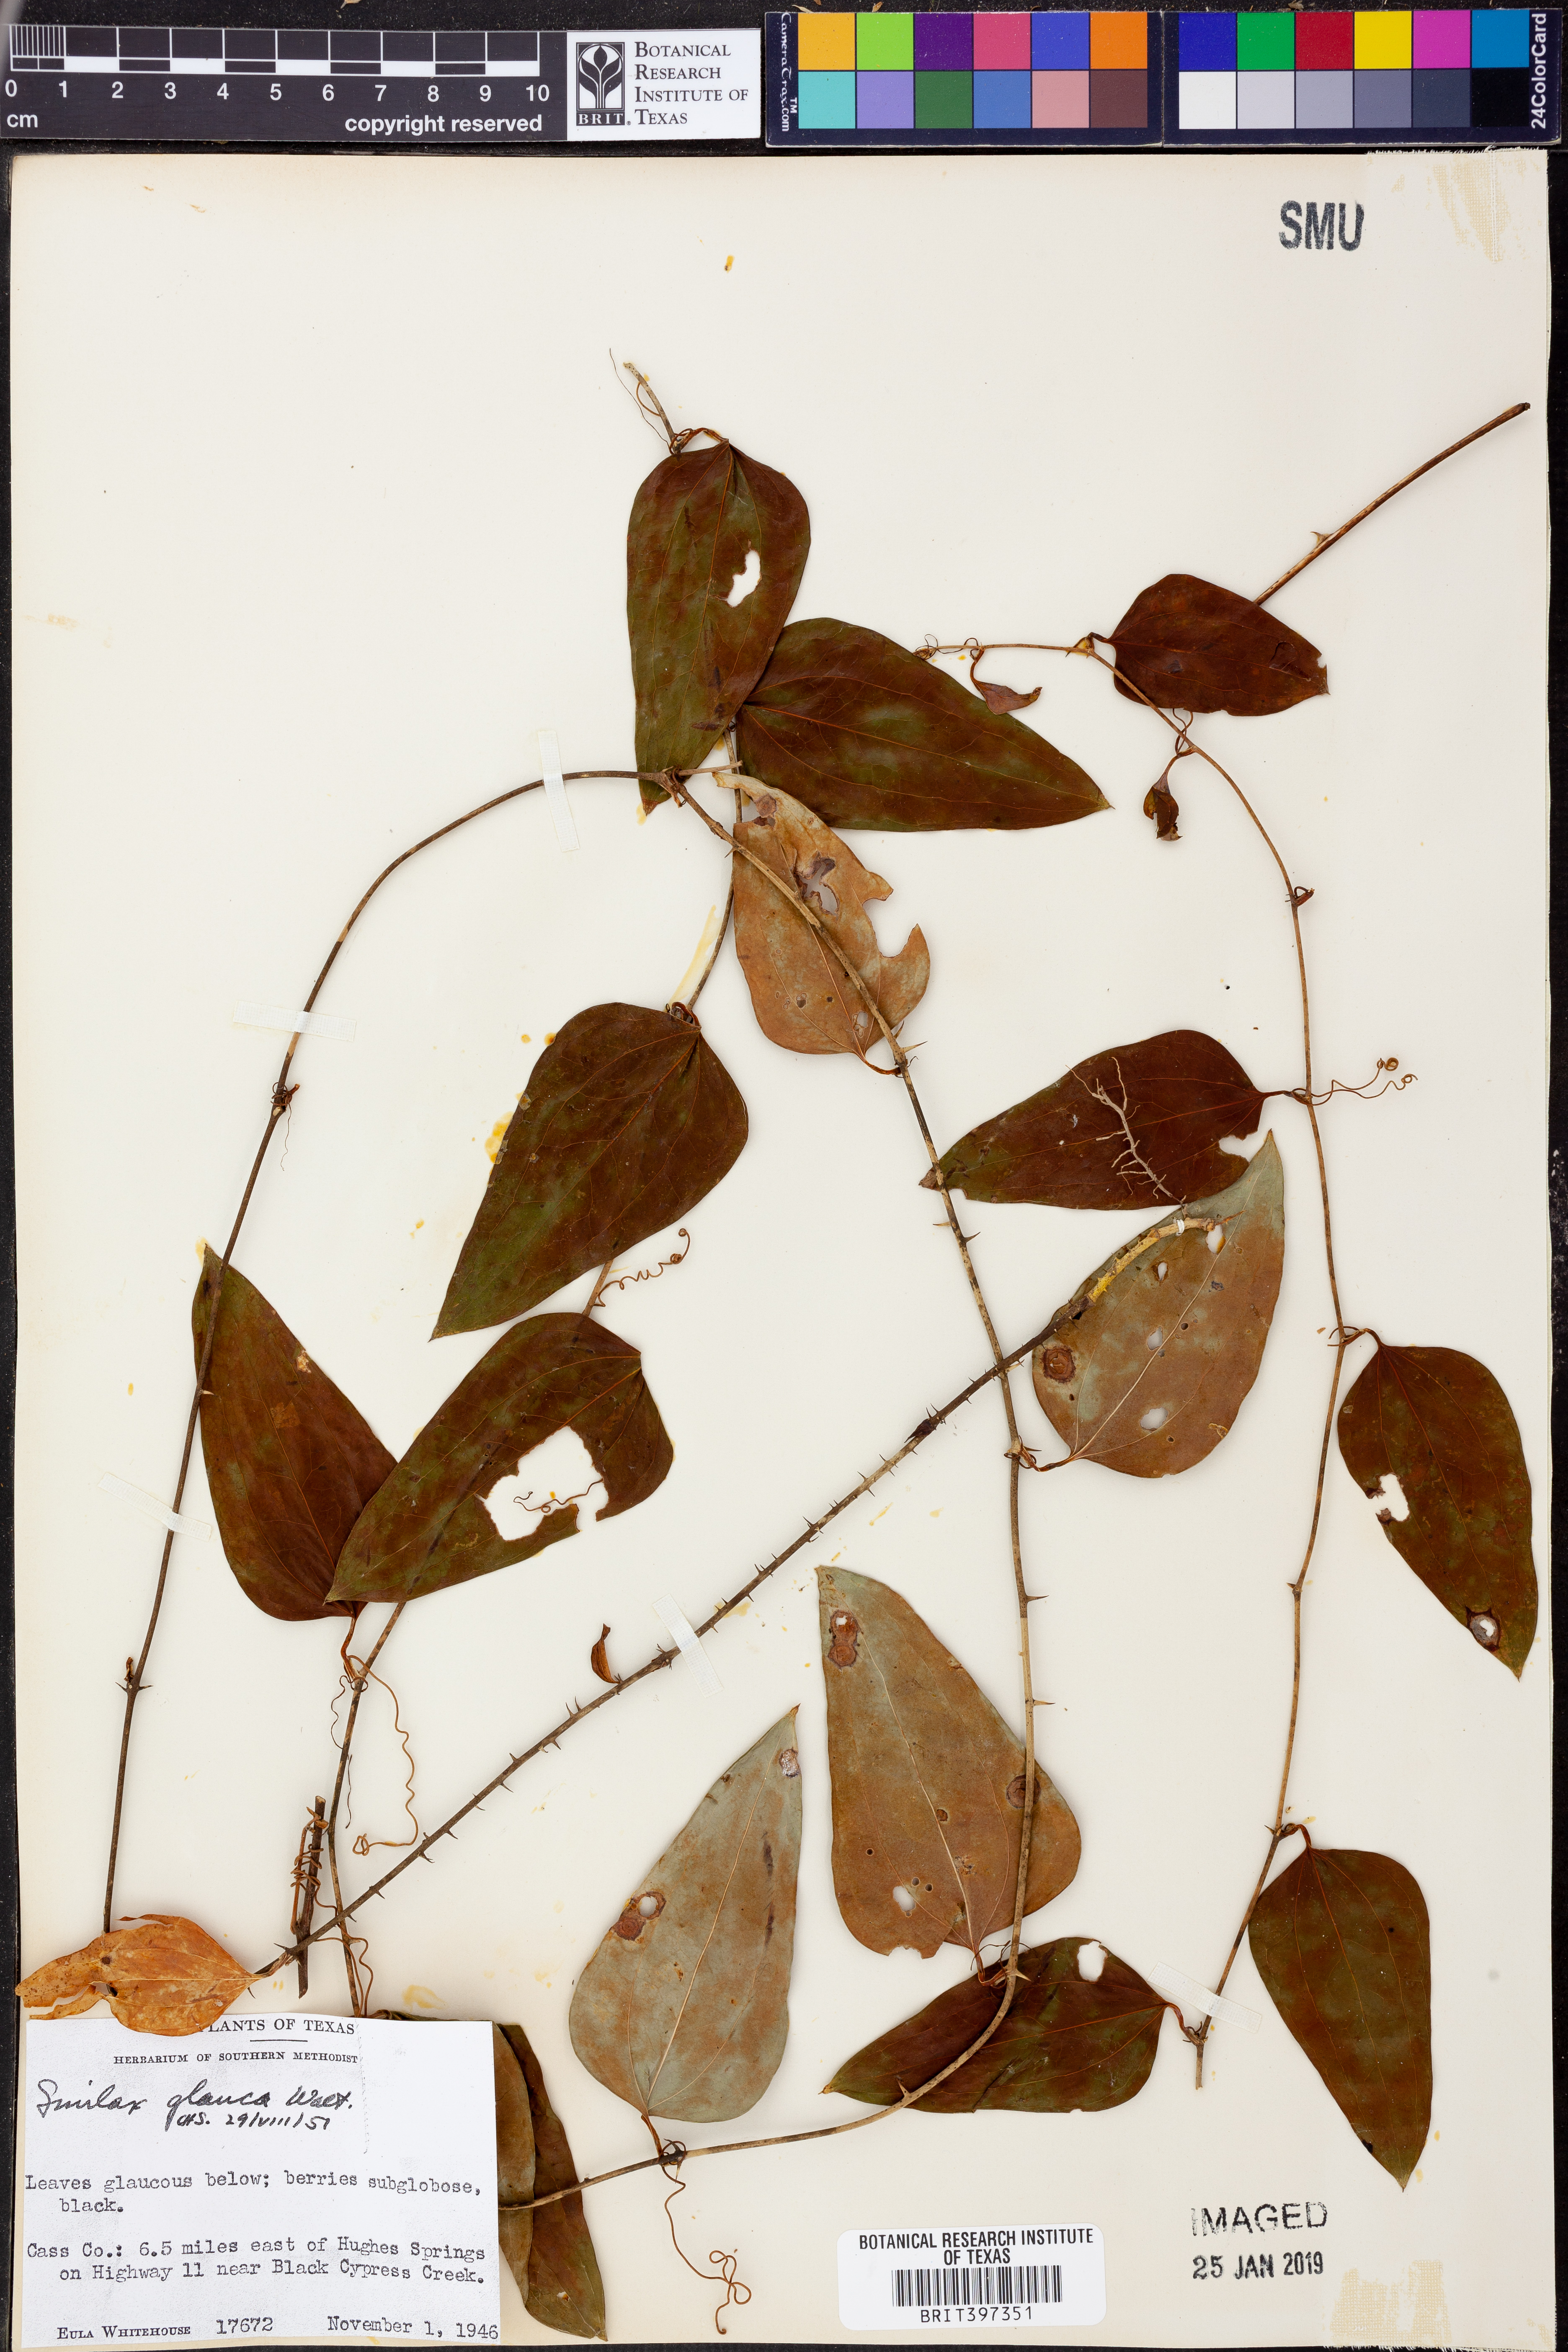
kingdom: Plantae
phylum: Tracheophyta
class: Liliopsida
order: Liliales
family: Smilacaceae
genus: Smilax
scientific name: Smilax glauca
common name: Cat greenbrier
